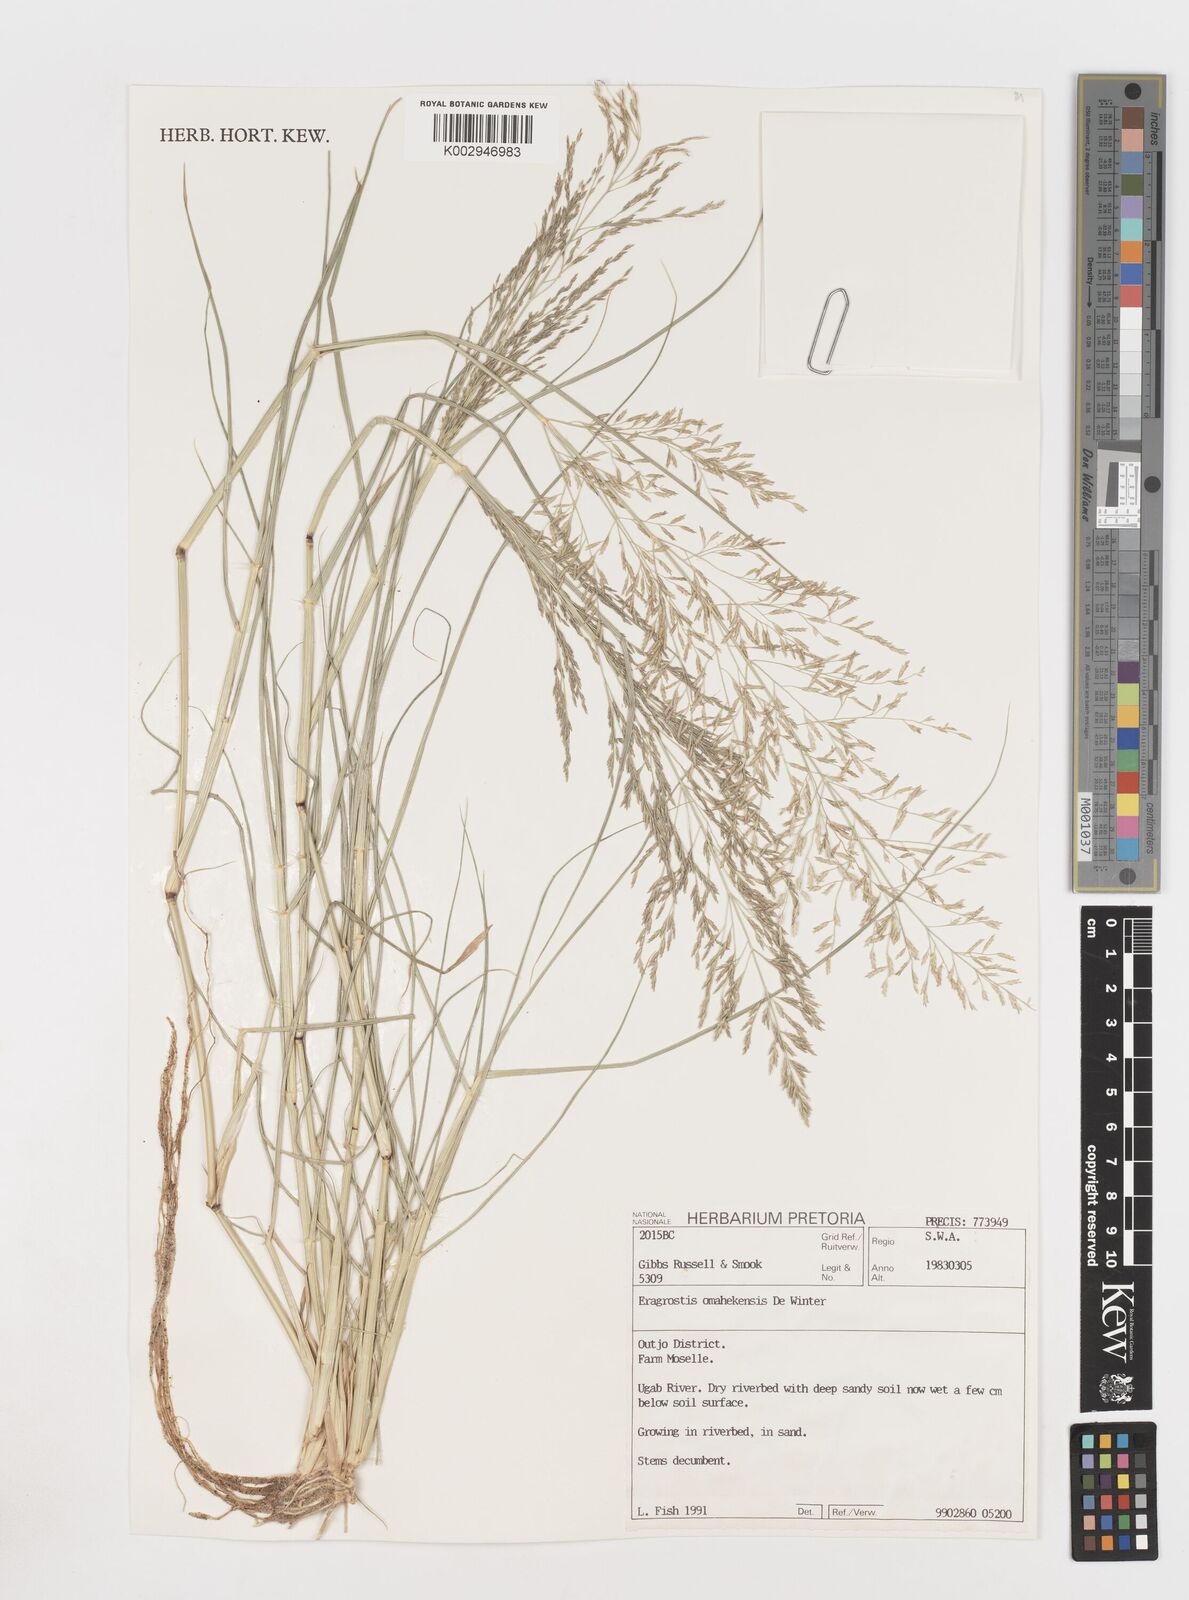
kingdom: Plantae
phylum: Tracheophyta
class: Liliopsida
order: Poales
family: Poaceae
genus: Eragrostis
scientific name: Eragrostis omahekensis
